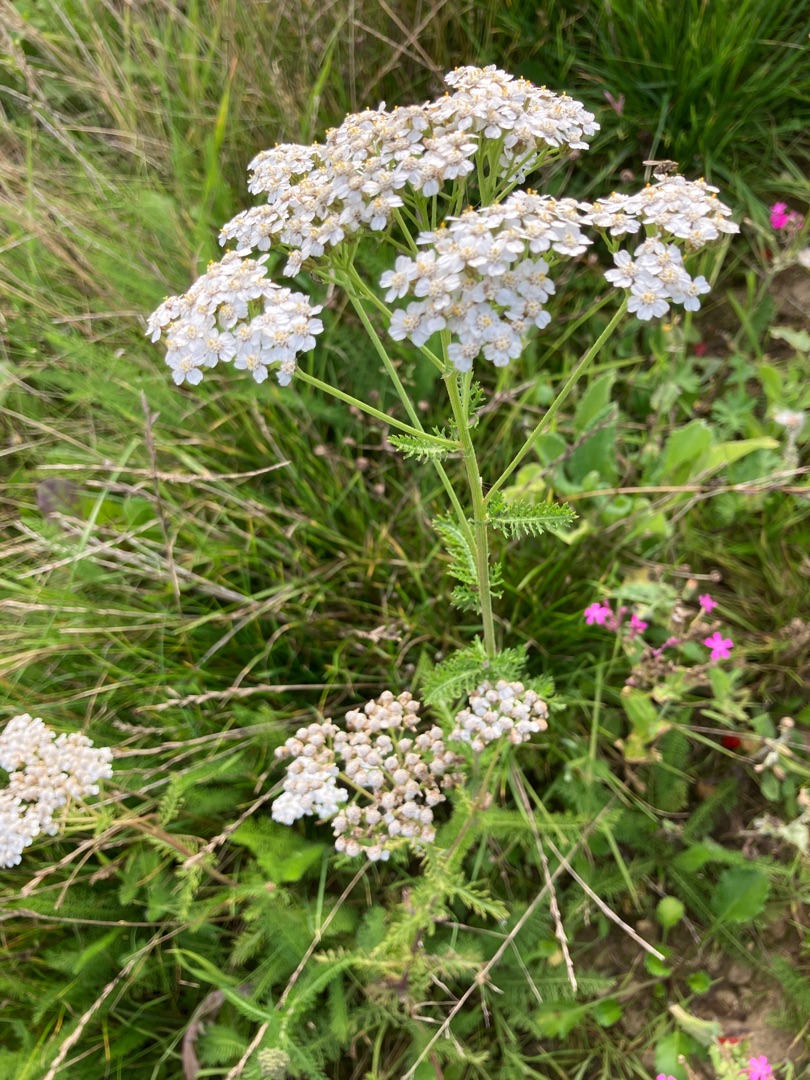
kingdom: Plantae
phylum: Tracheophyta
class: Magnoliopsida
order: Asterales
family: Asteraceae
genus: Achillea
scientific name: Achillea millefolium
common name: Almindelig røllike
